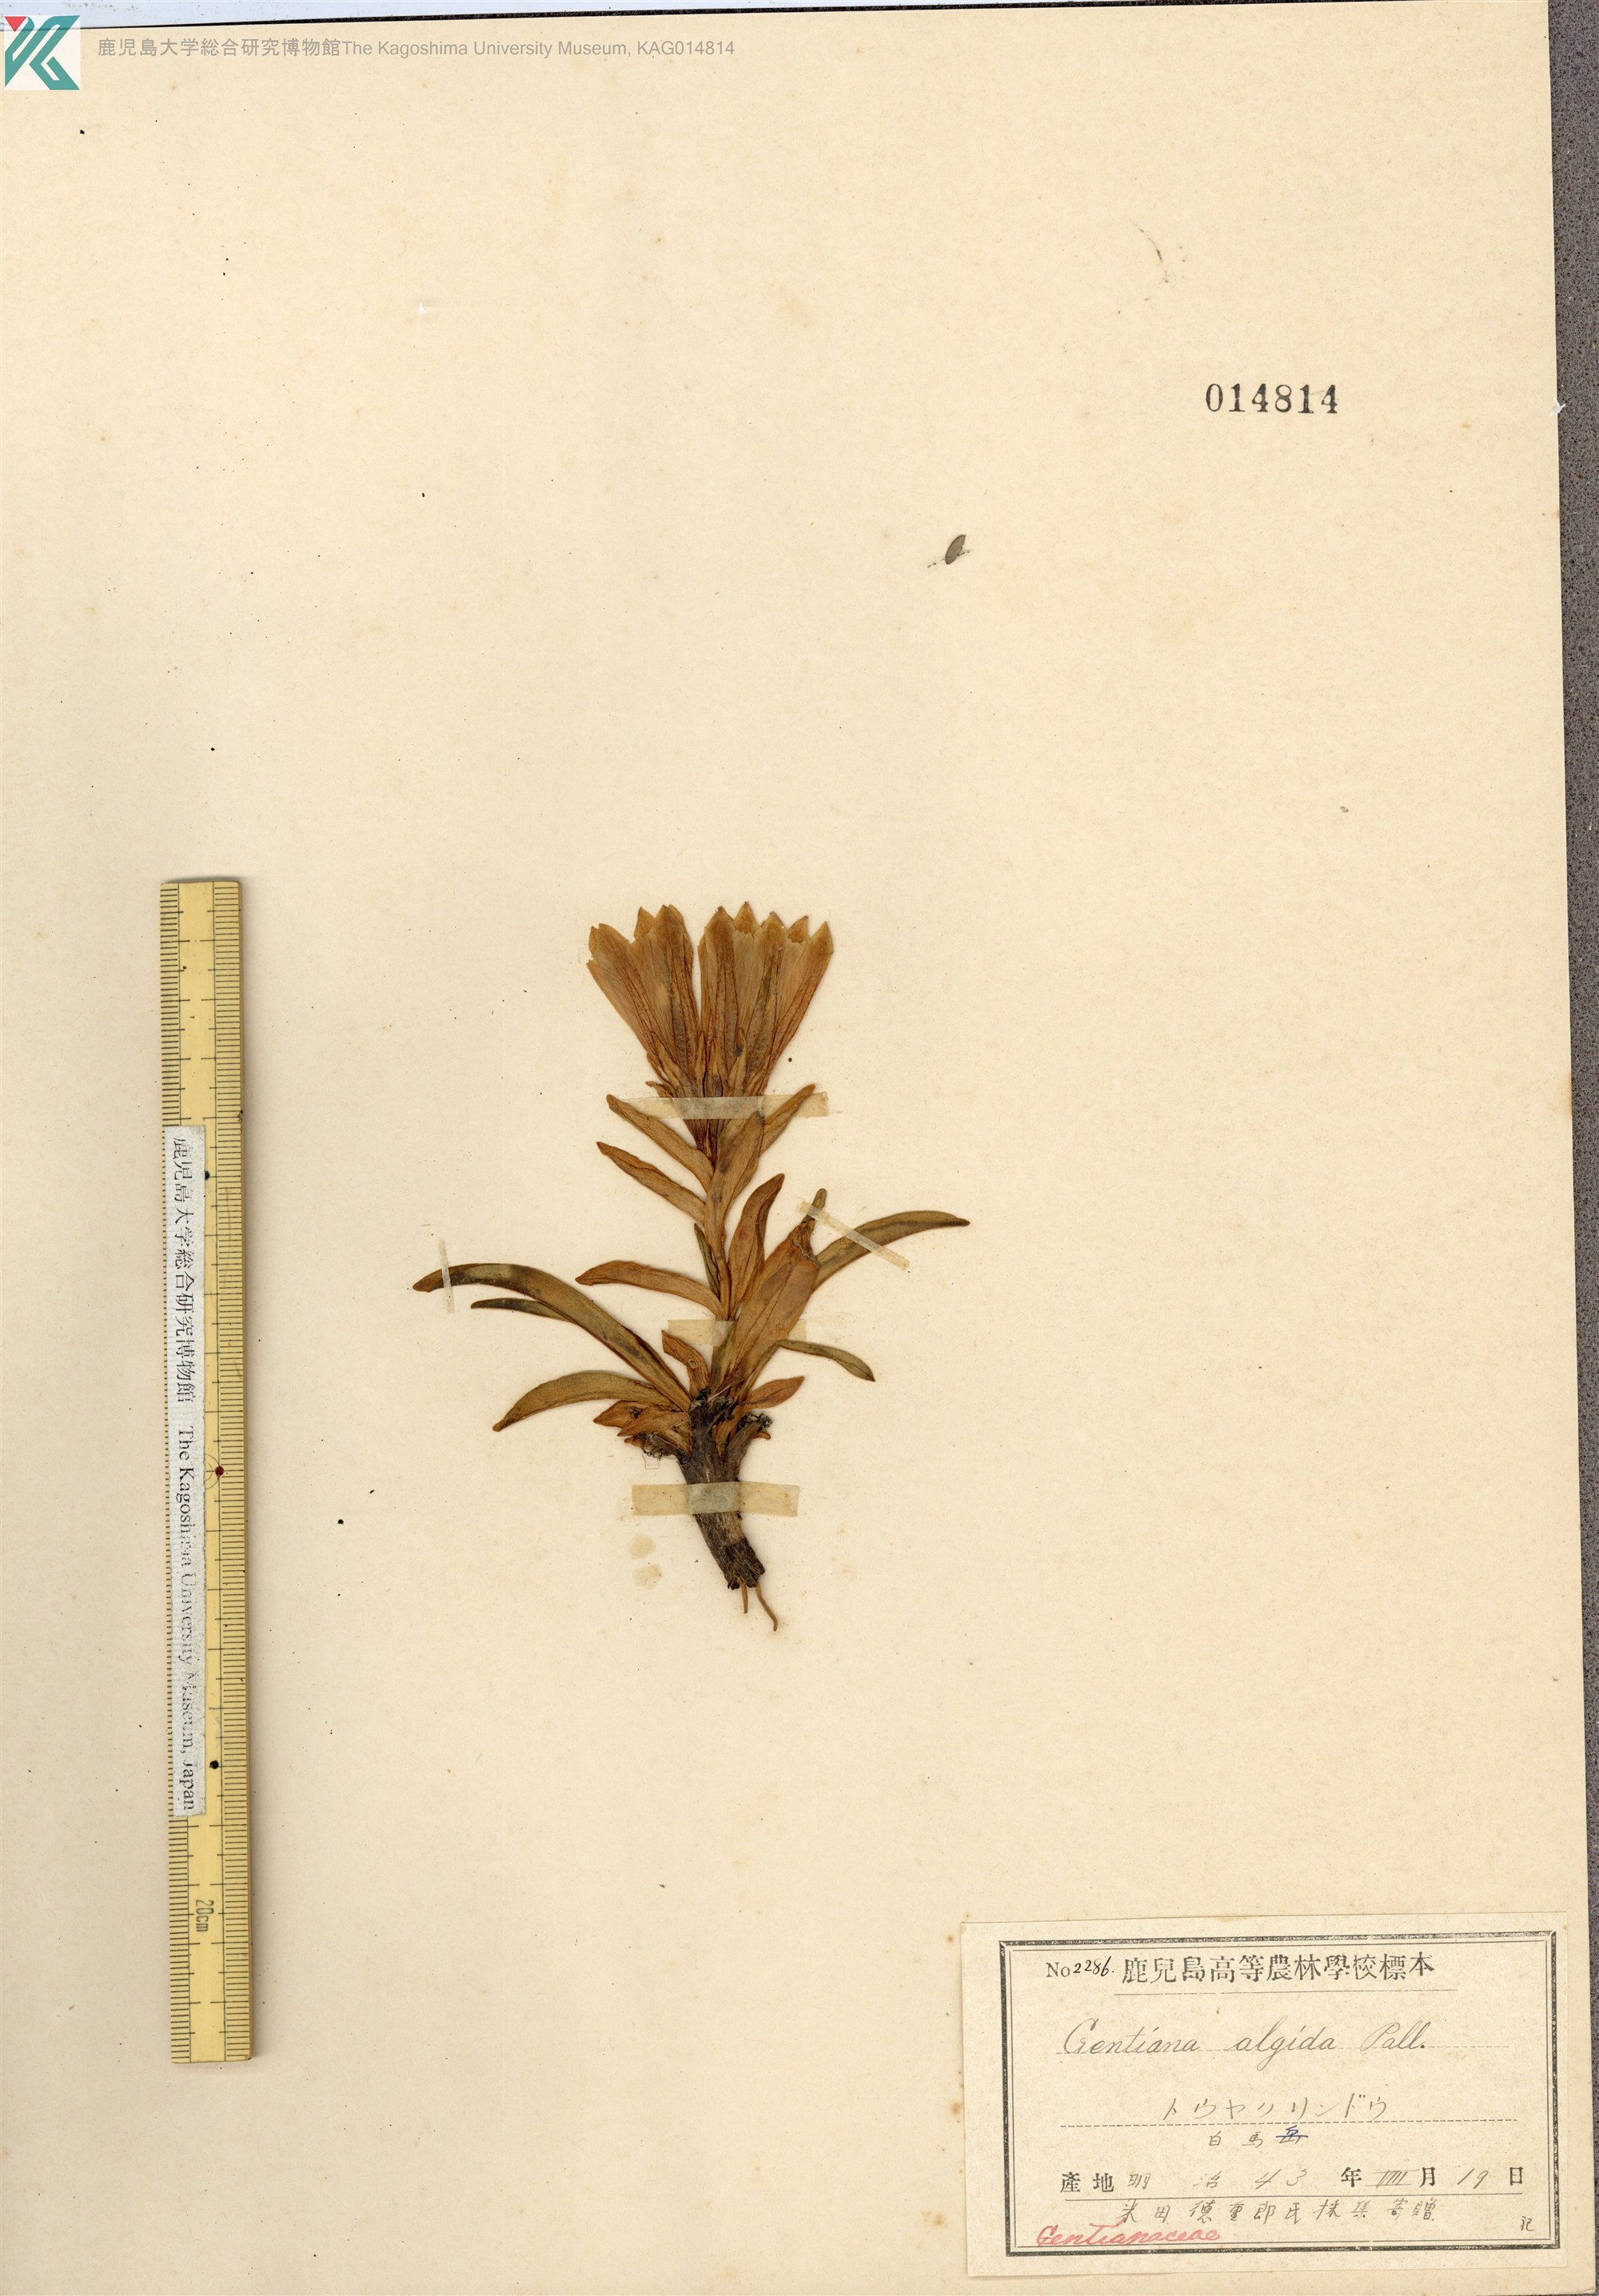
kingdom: Plantae
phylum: Tracheophyta
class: Magnoliopsida
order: Gentianales
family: Gentianaceae
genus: Gentiana
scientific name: Gentiana algida
